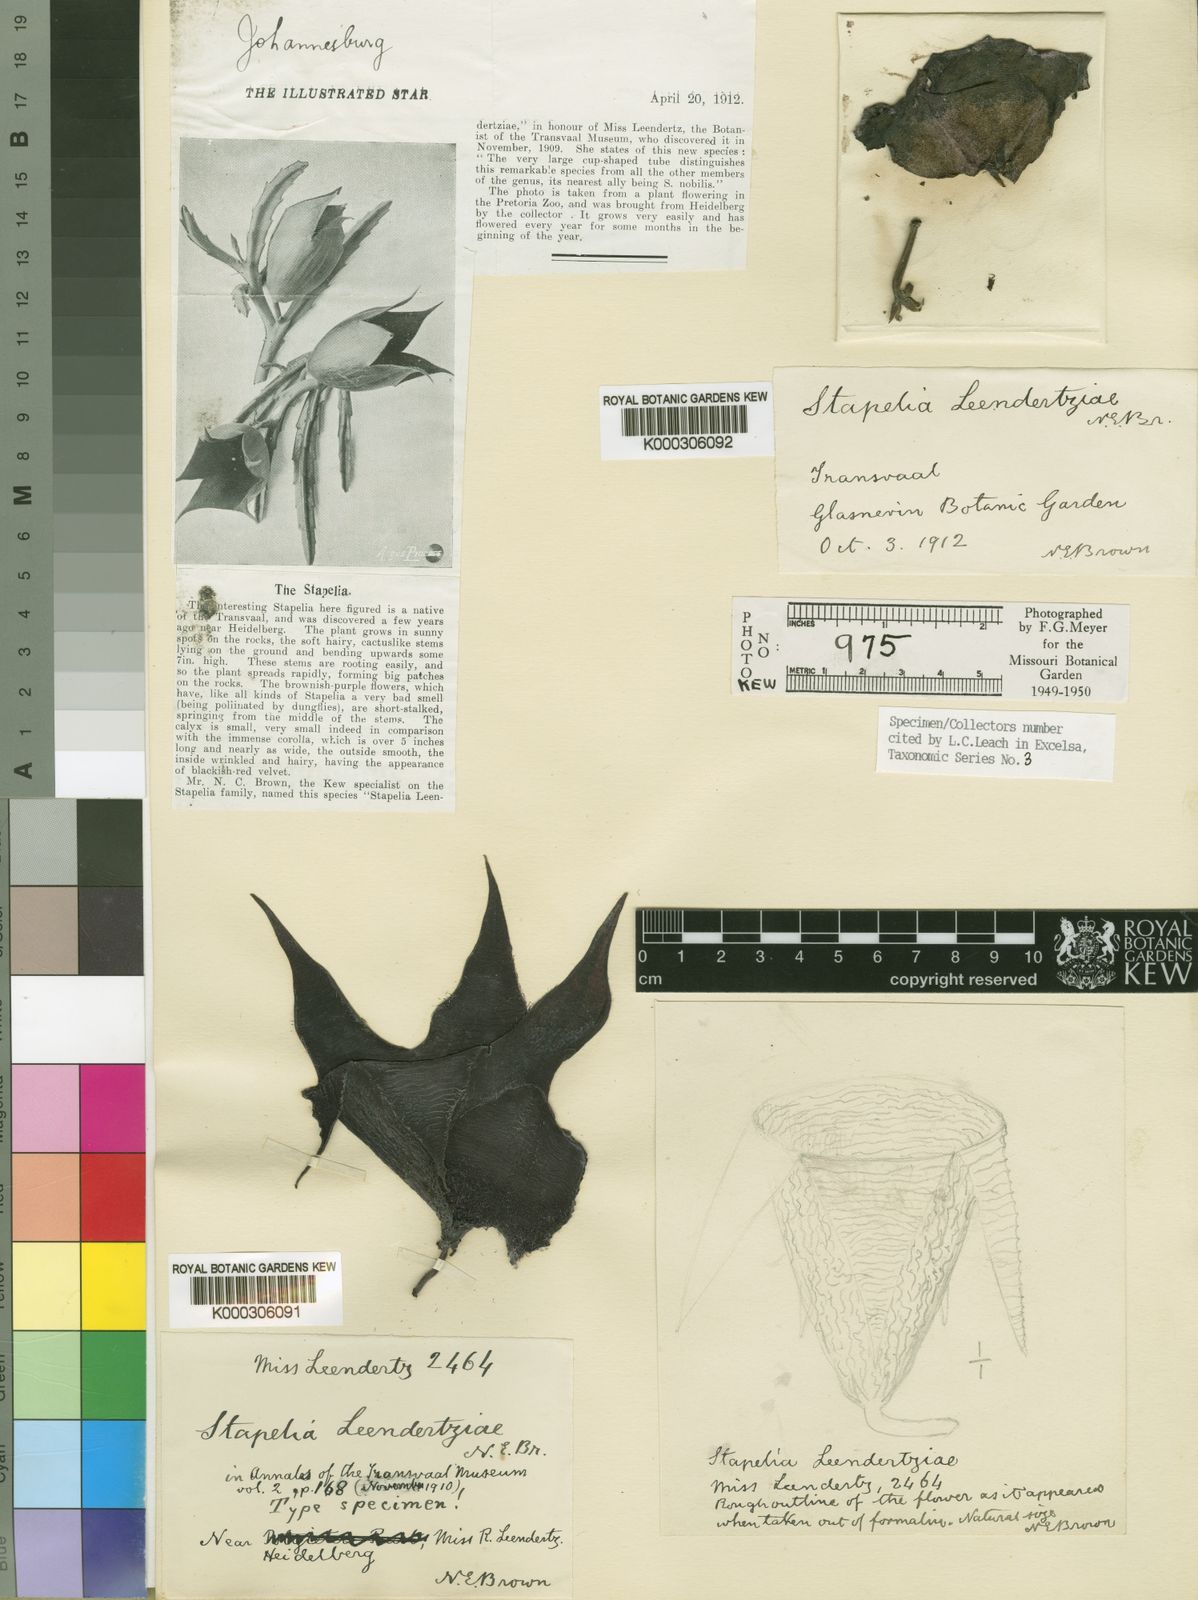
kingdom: Plantae
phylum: Tracheophyta
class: Magnoliopsida
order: Gentianales
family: Apocynaceae
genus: Ceropegia
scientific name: Ceropegia leendertziae
